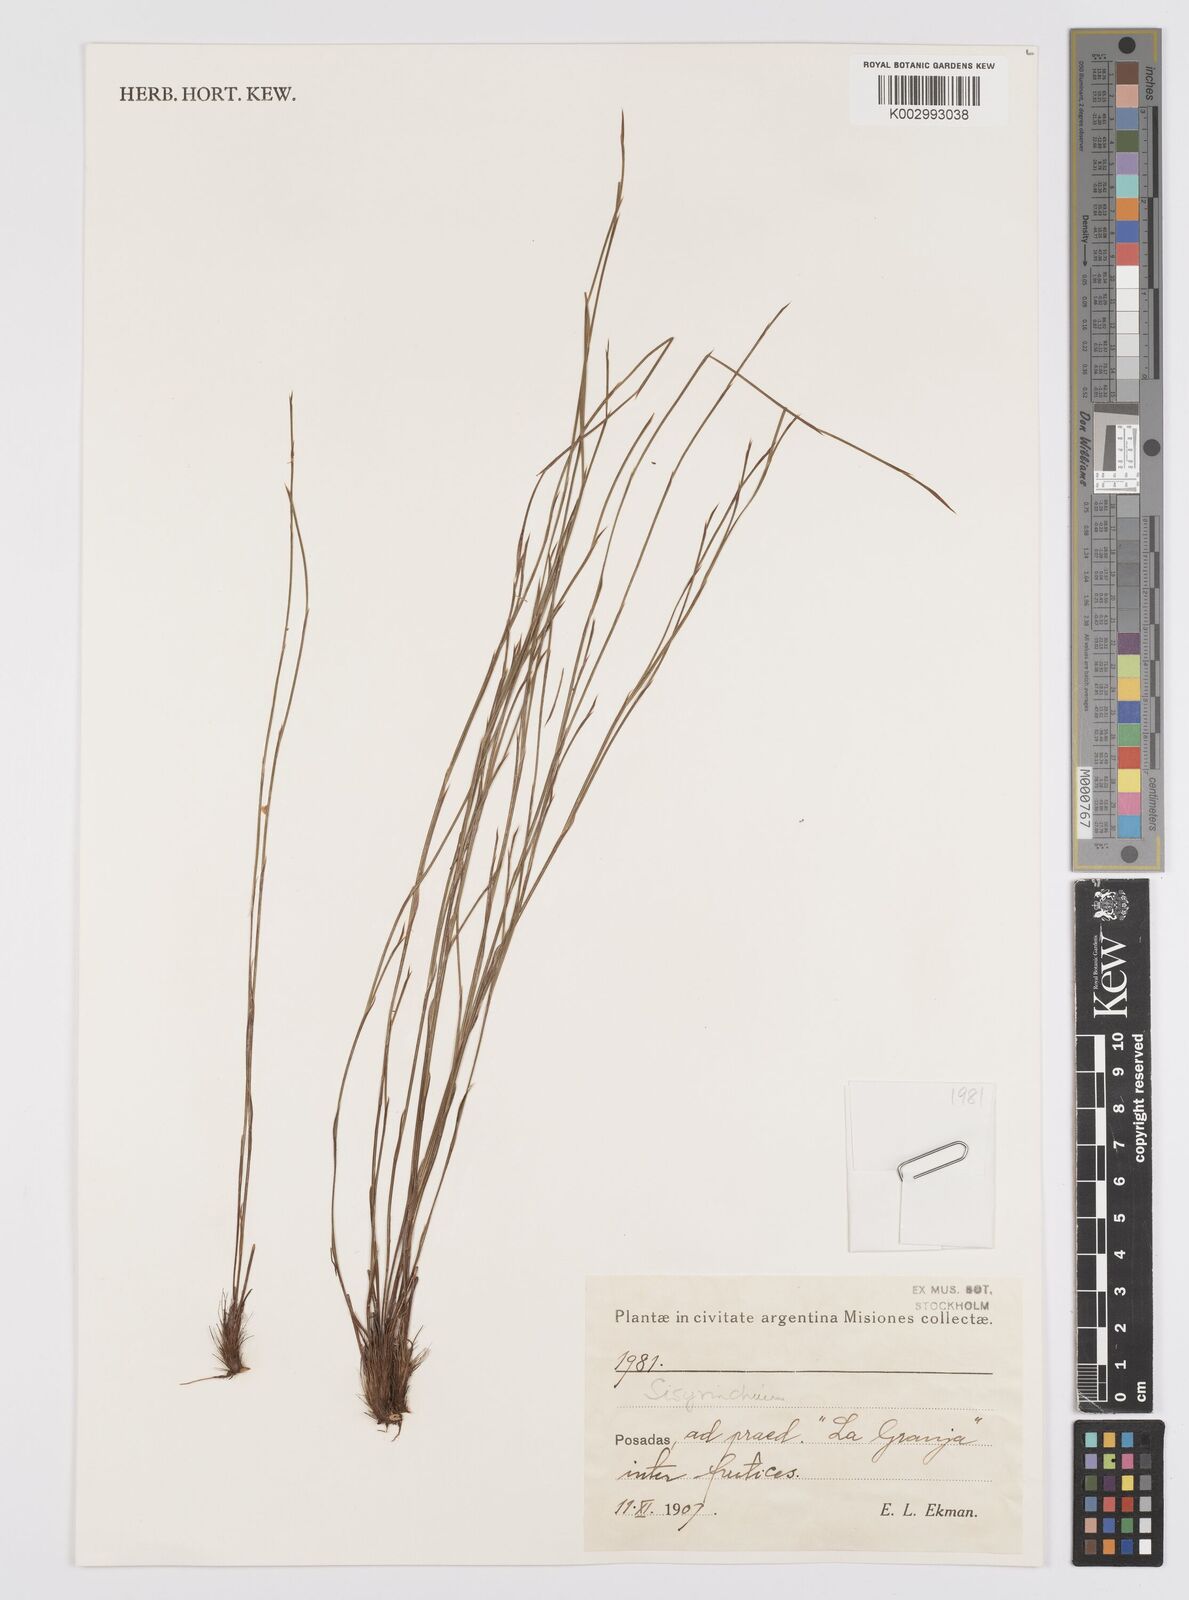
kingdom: Plantae
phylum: Tracheophyta
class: Liliopsida
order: Asparagales
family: Iridaceae
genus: Sisyrinchium
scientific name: Sisyrinchium
